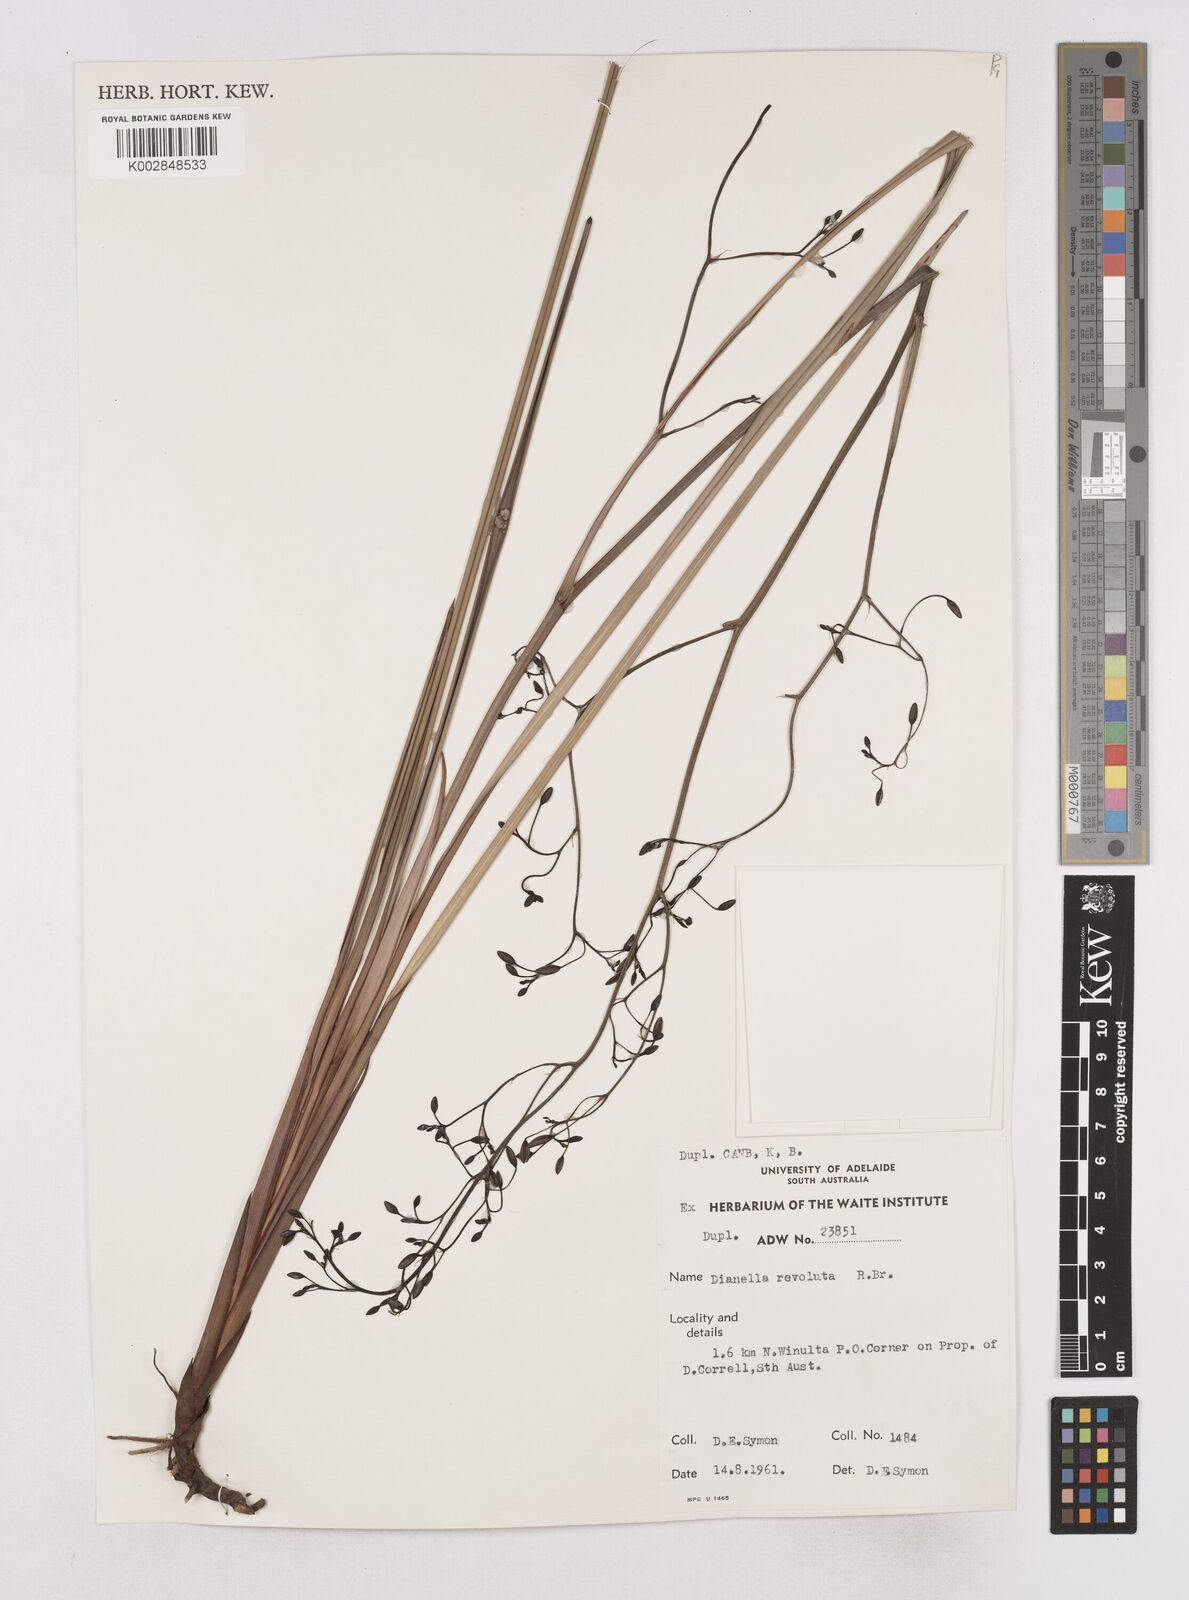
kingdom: Plantae
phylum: Tracheophyta
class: Liliopsida
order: Asparagales
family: Asphodelaceae
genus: Dianella
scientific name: Dianella revoluta
